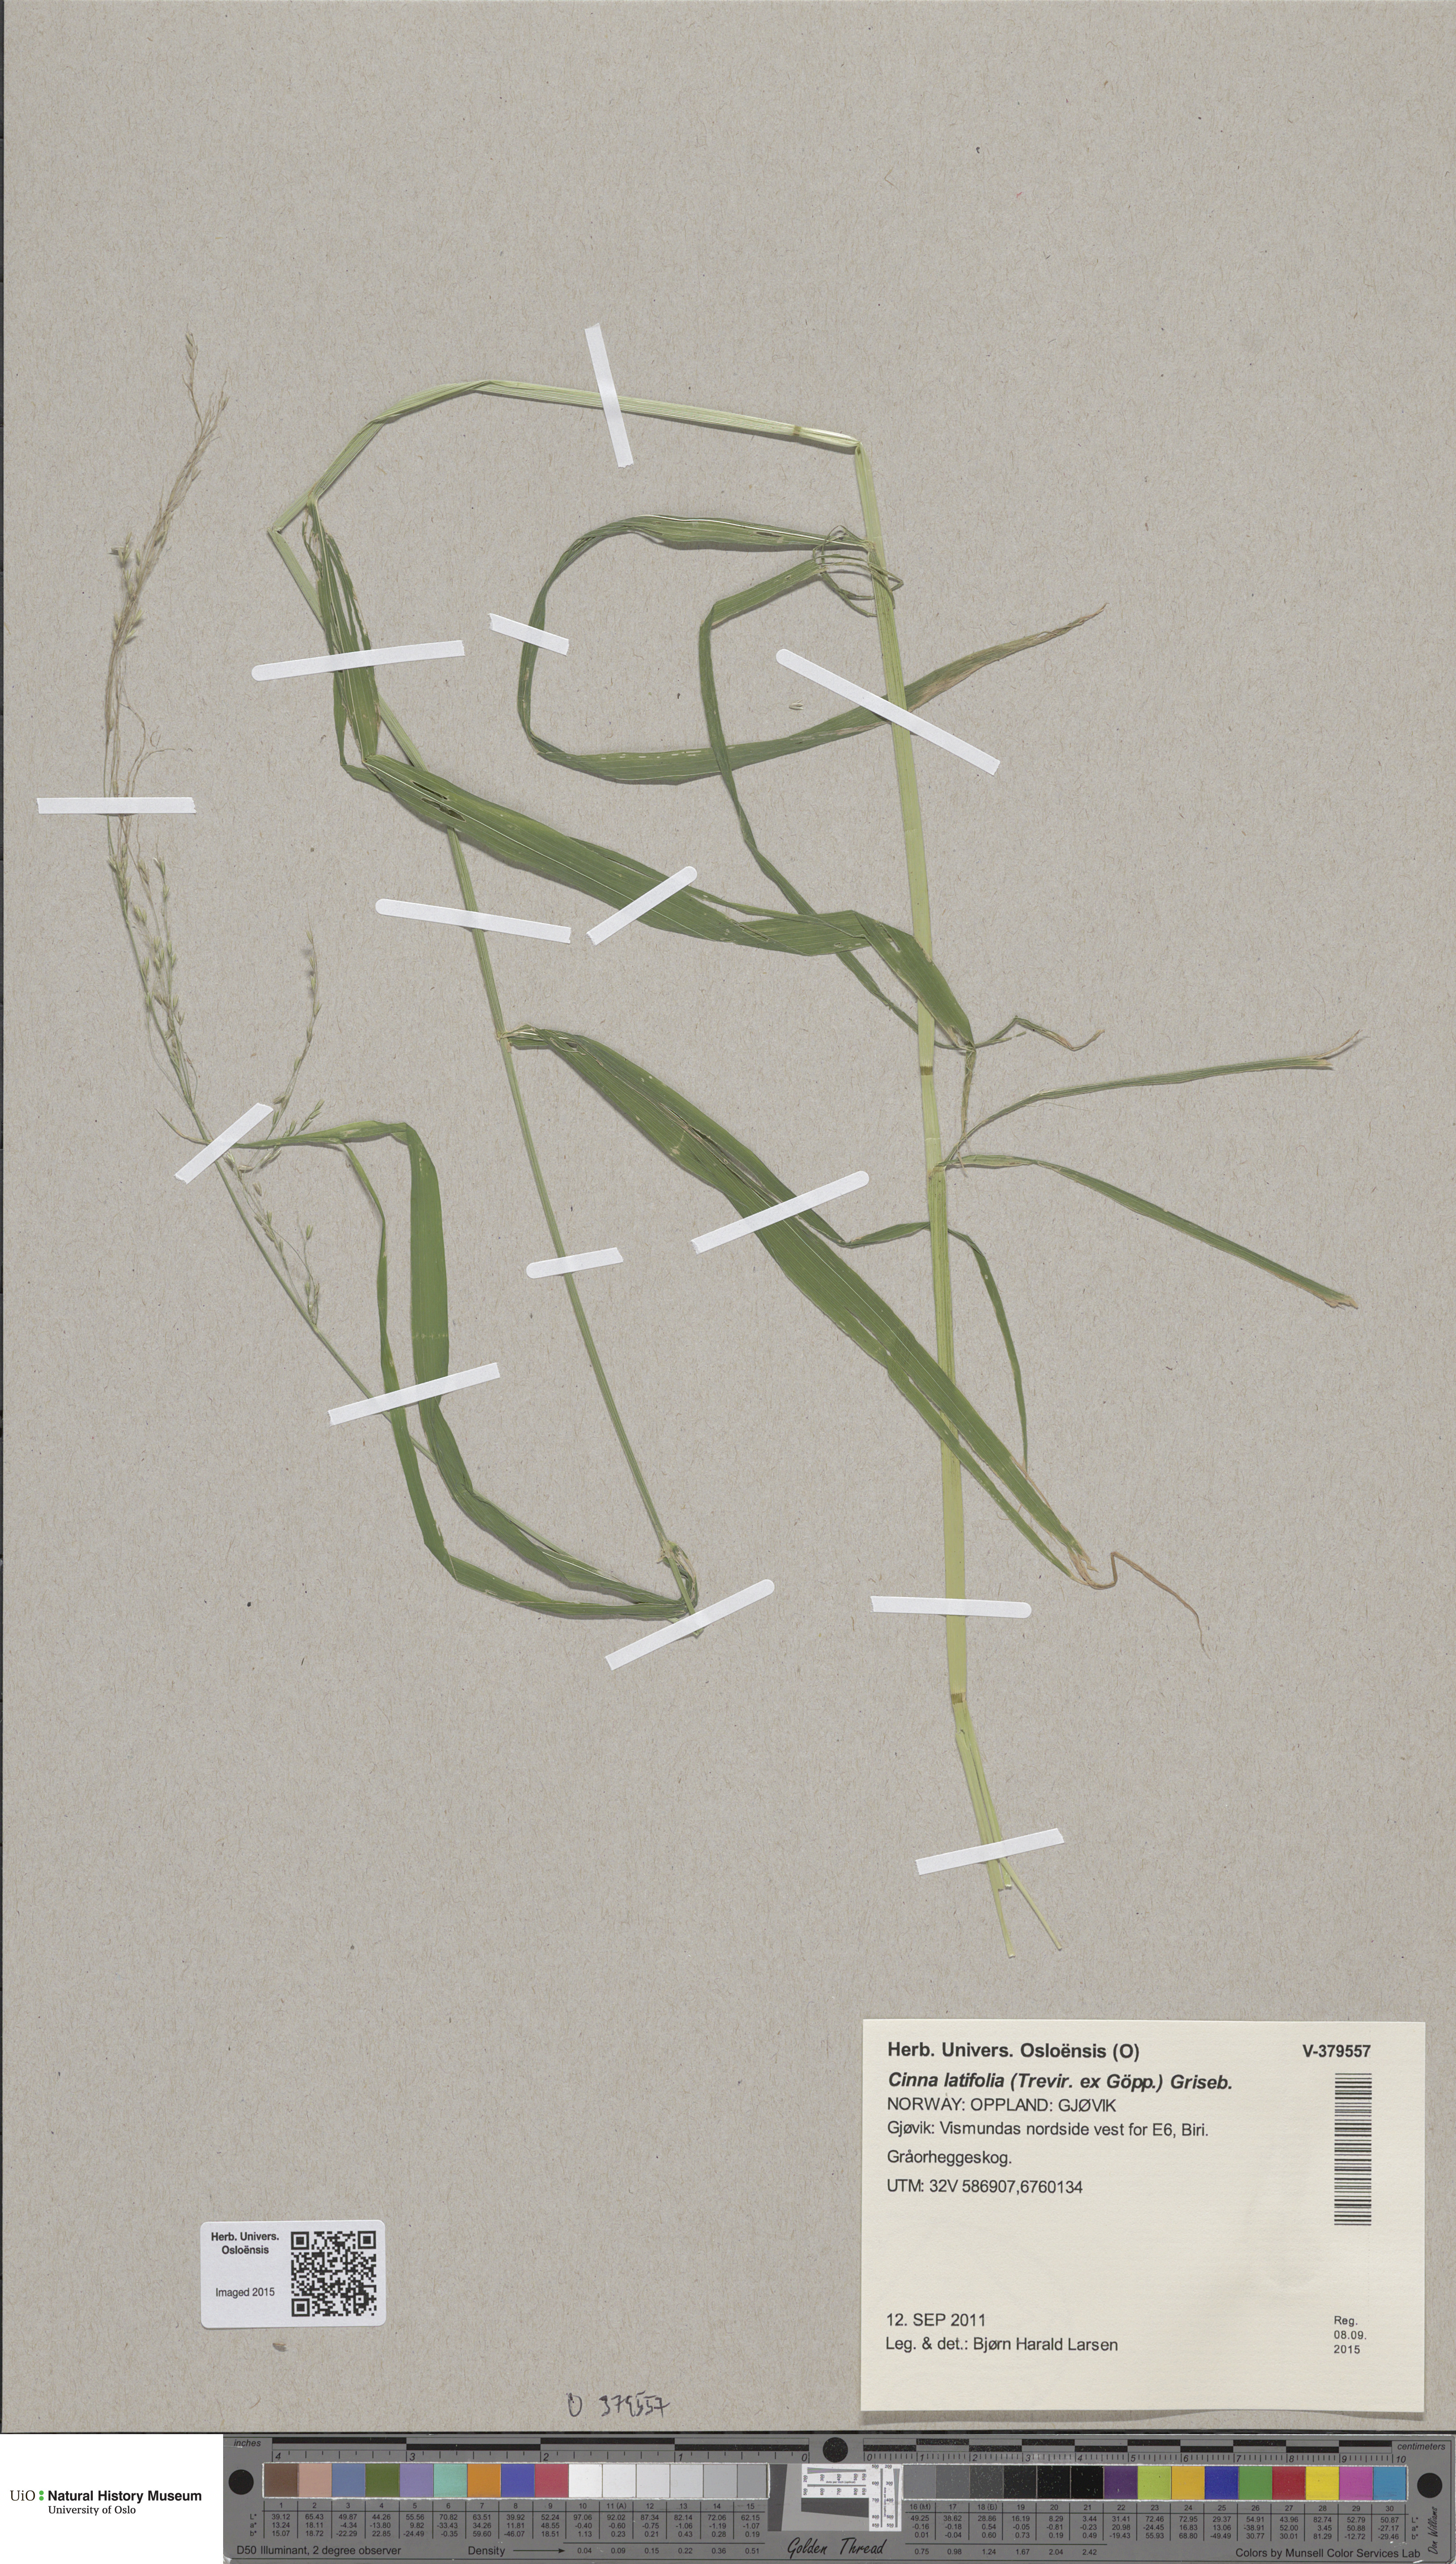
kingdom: Plantae
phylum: Tracheophyta
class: Liliopsida
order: Poales
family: Poaceae
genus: Cinna
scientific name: Cinna latifolia
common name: Drooping woodreed
